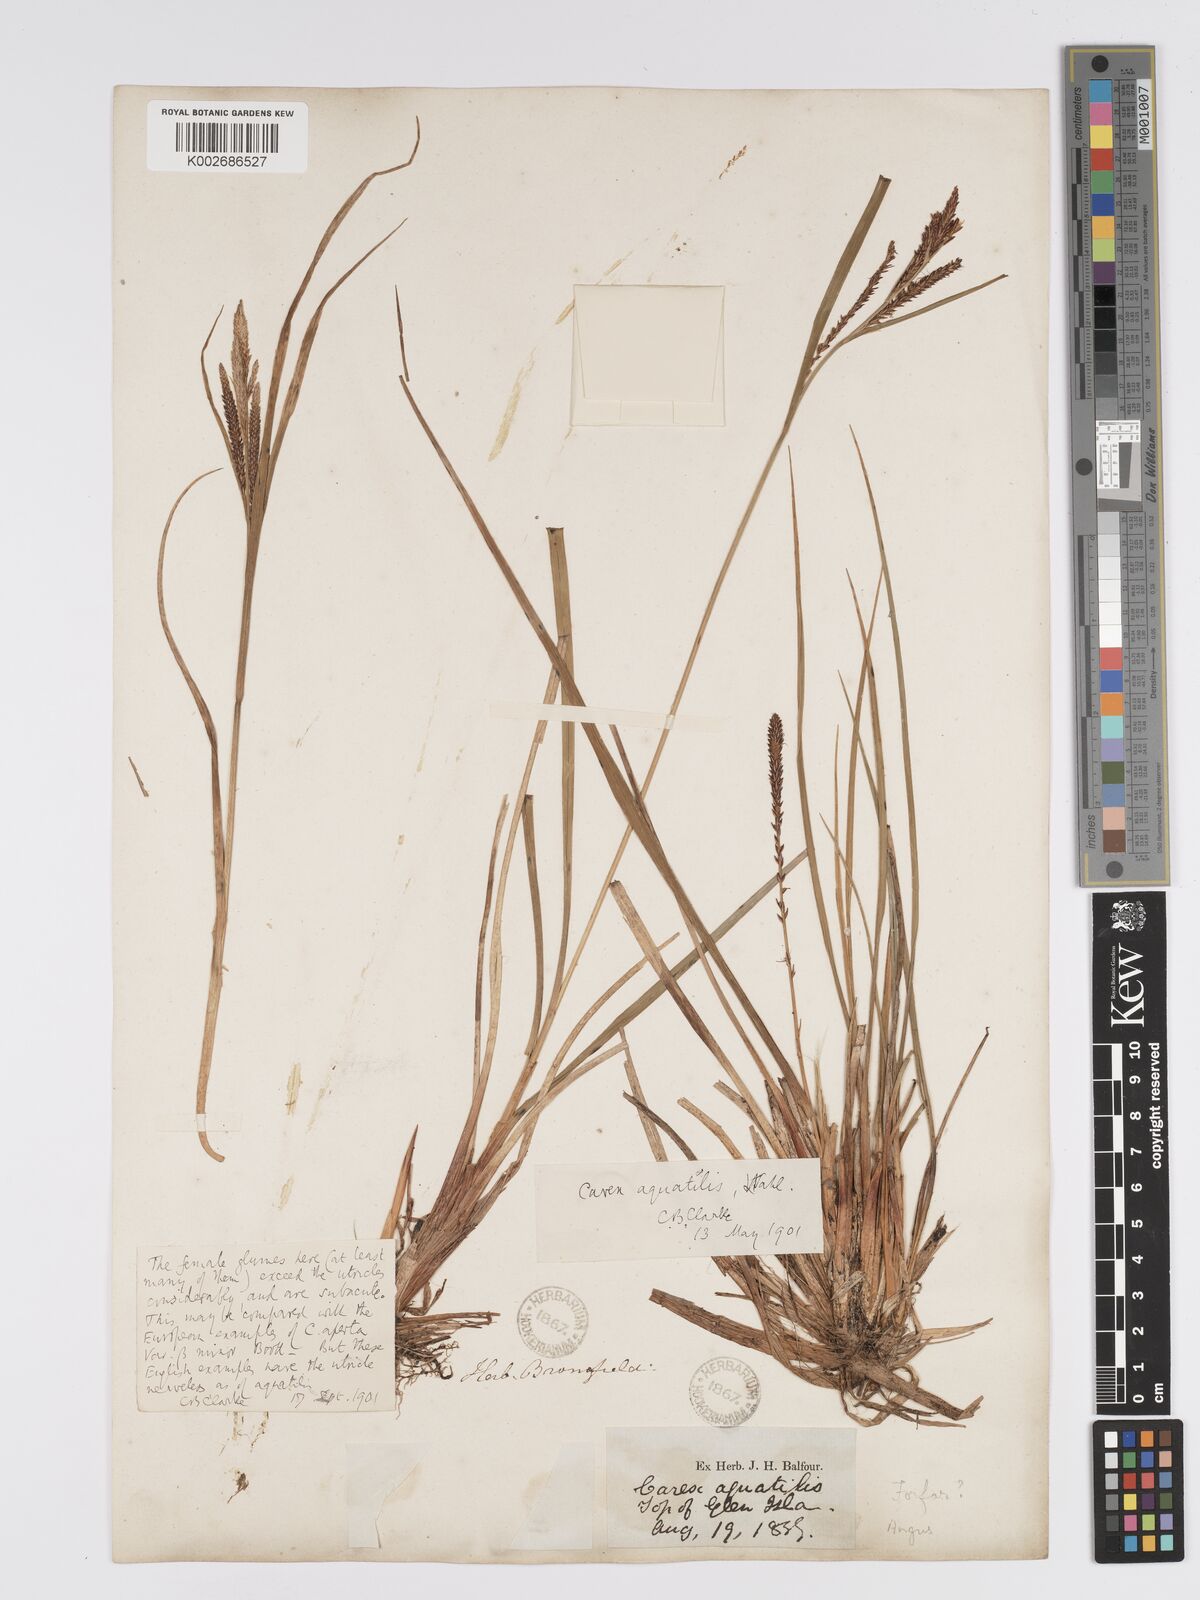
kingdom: Plantae
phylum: Tracheophyta
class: Liliopsida
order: Poales
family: Cyperaceae
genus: Carex
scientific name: Carex aquatilis
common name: Water sedge
